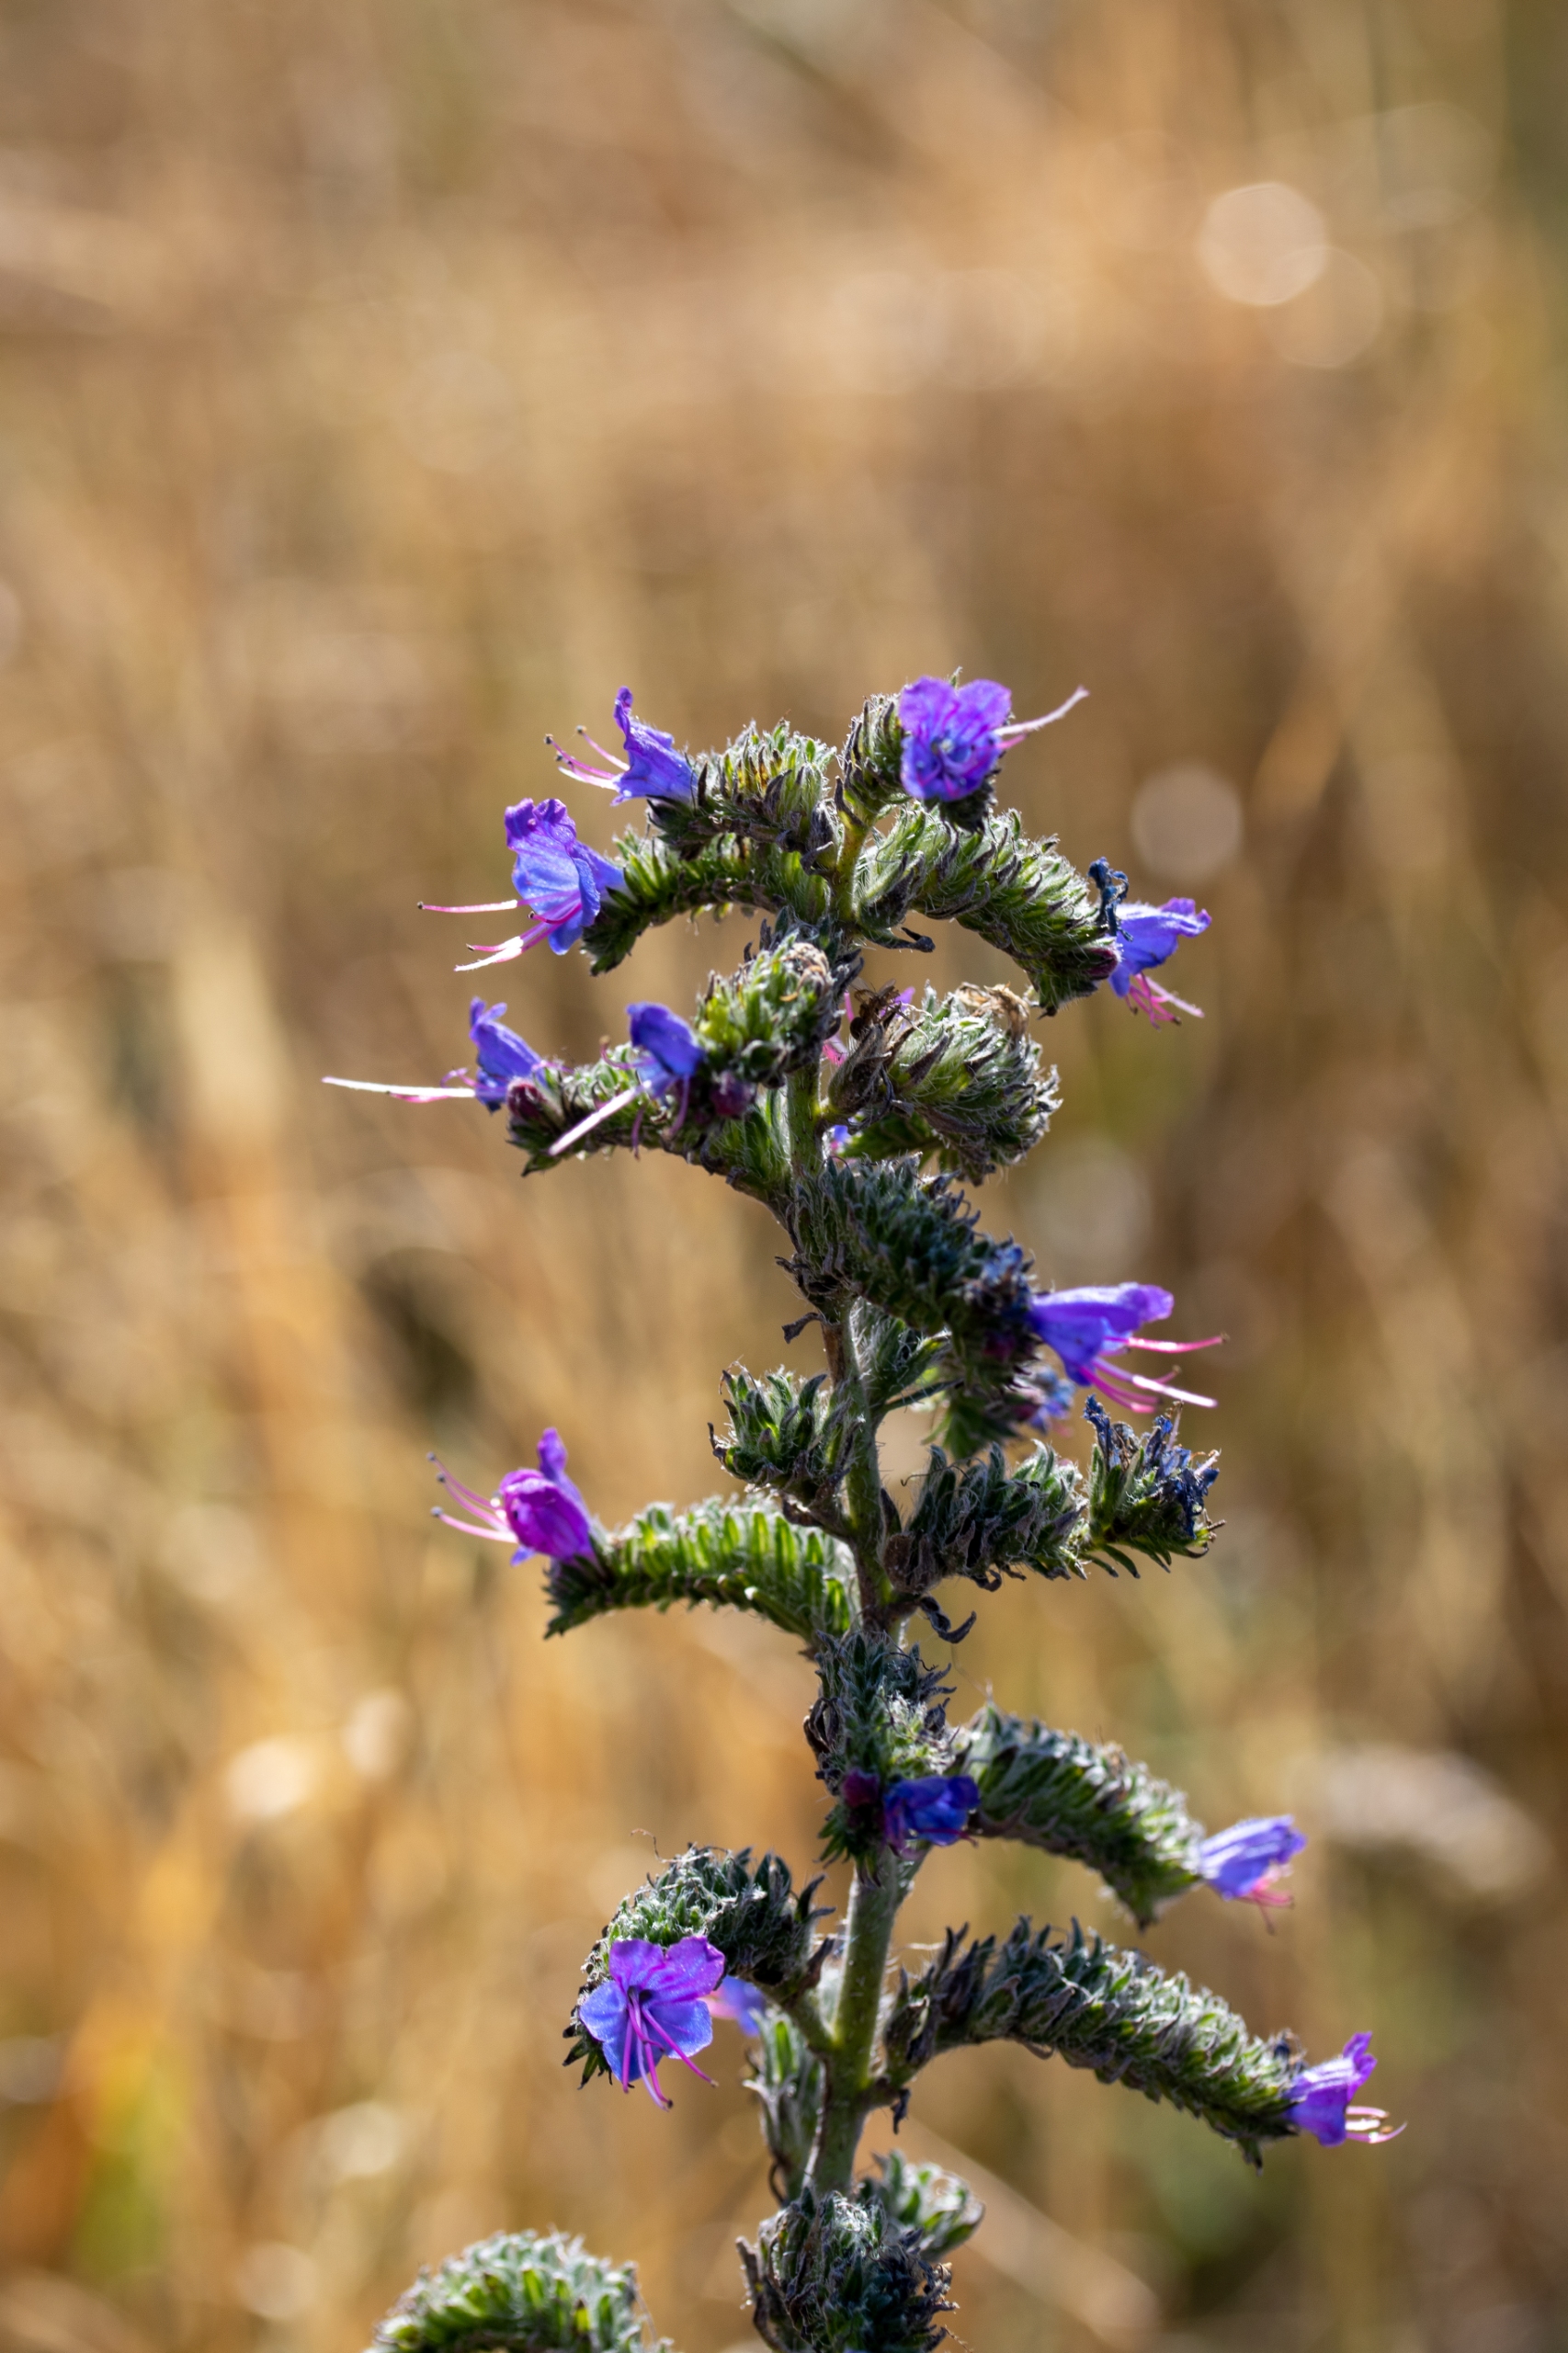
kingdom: Plantae
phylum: Tracheophyta
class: Magnoliopsida
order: Boraginales
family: Boraginaceae
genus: Echium
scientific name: Echium vulgare
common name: Slangehoved
